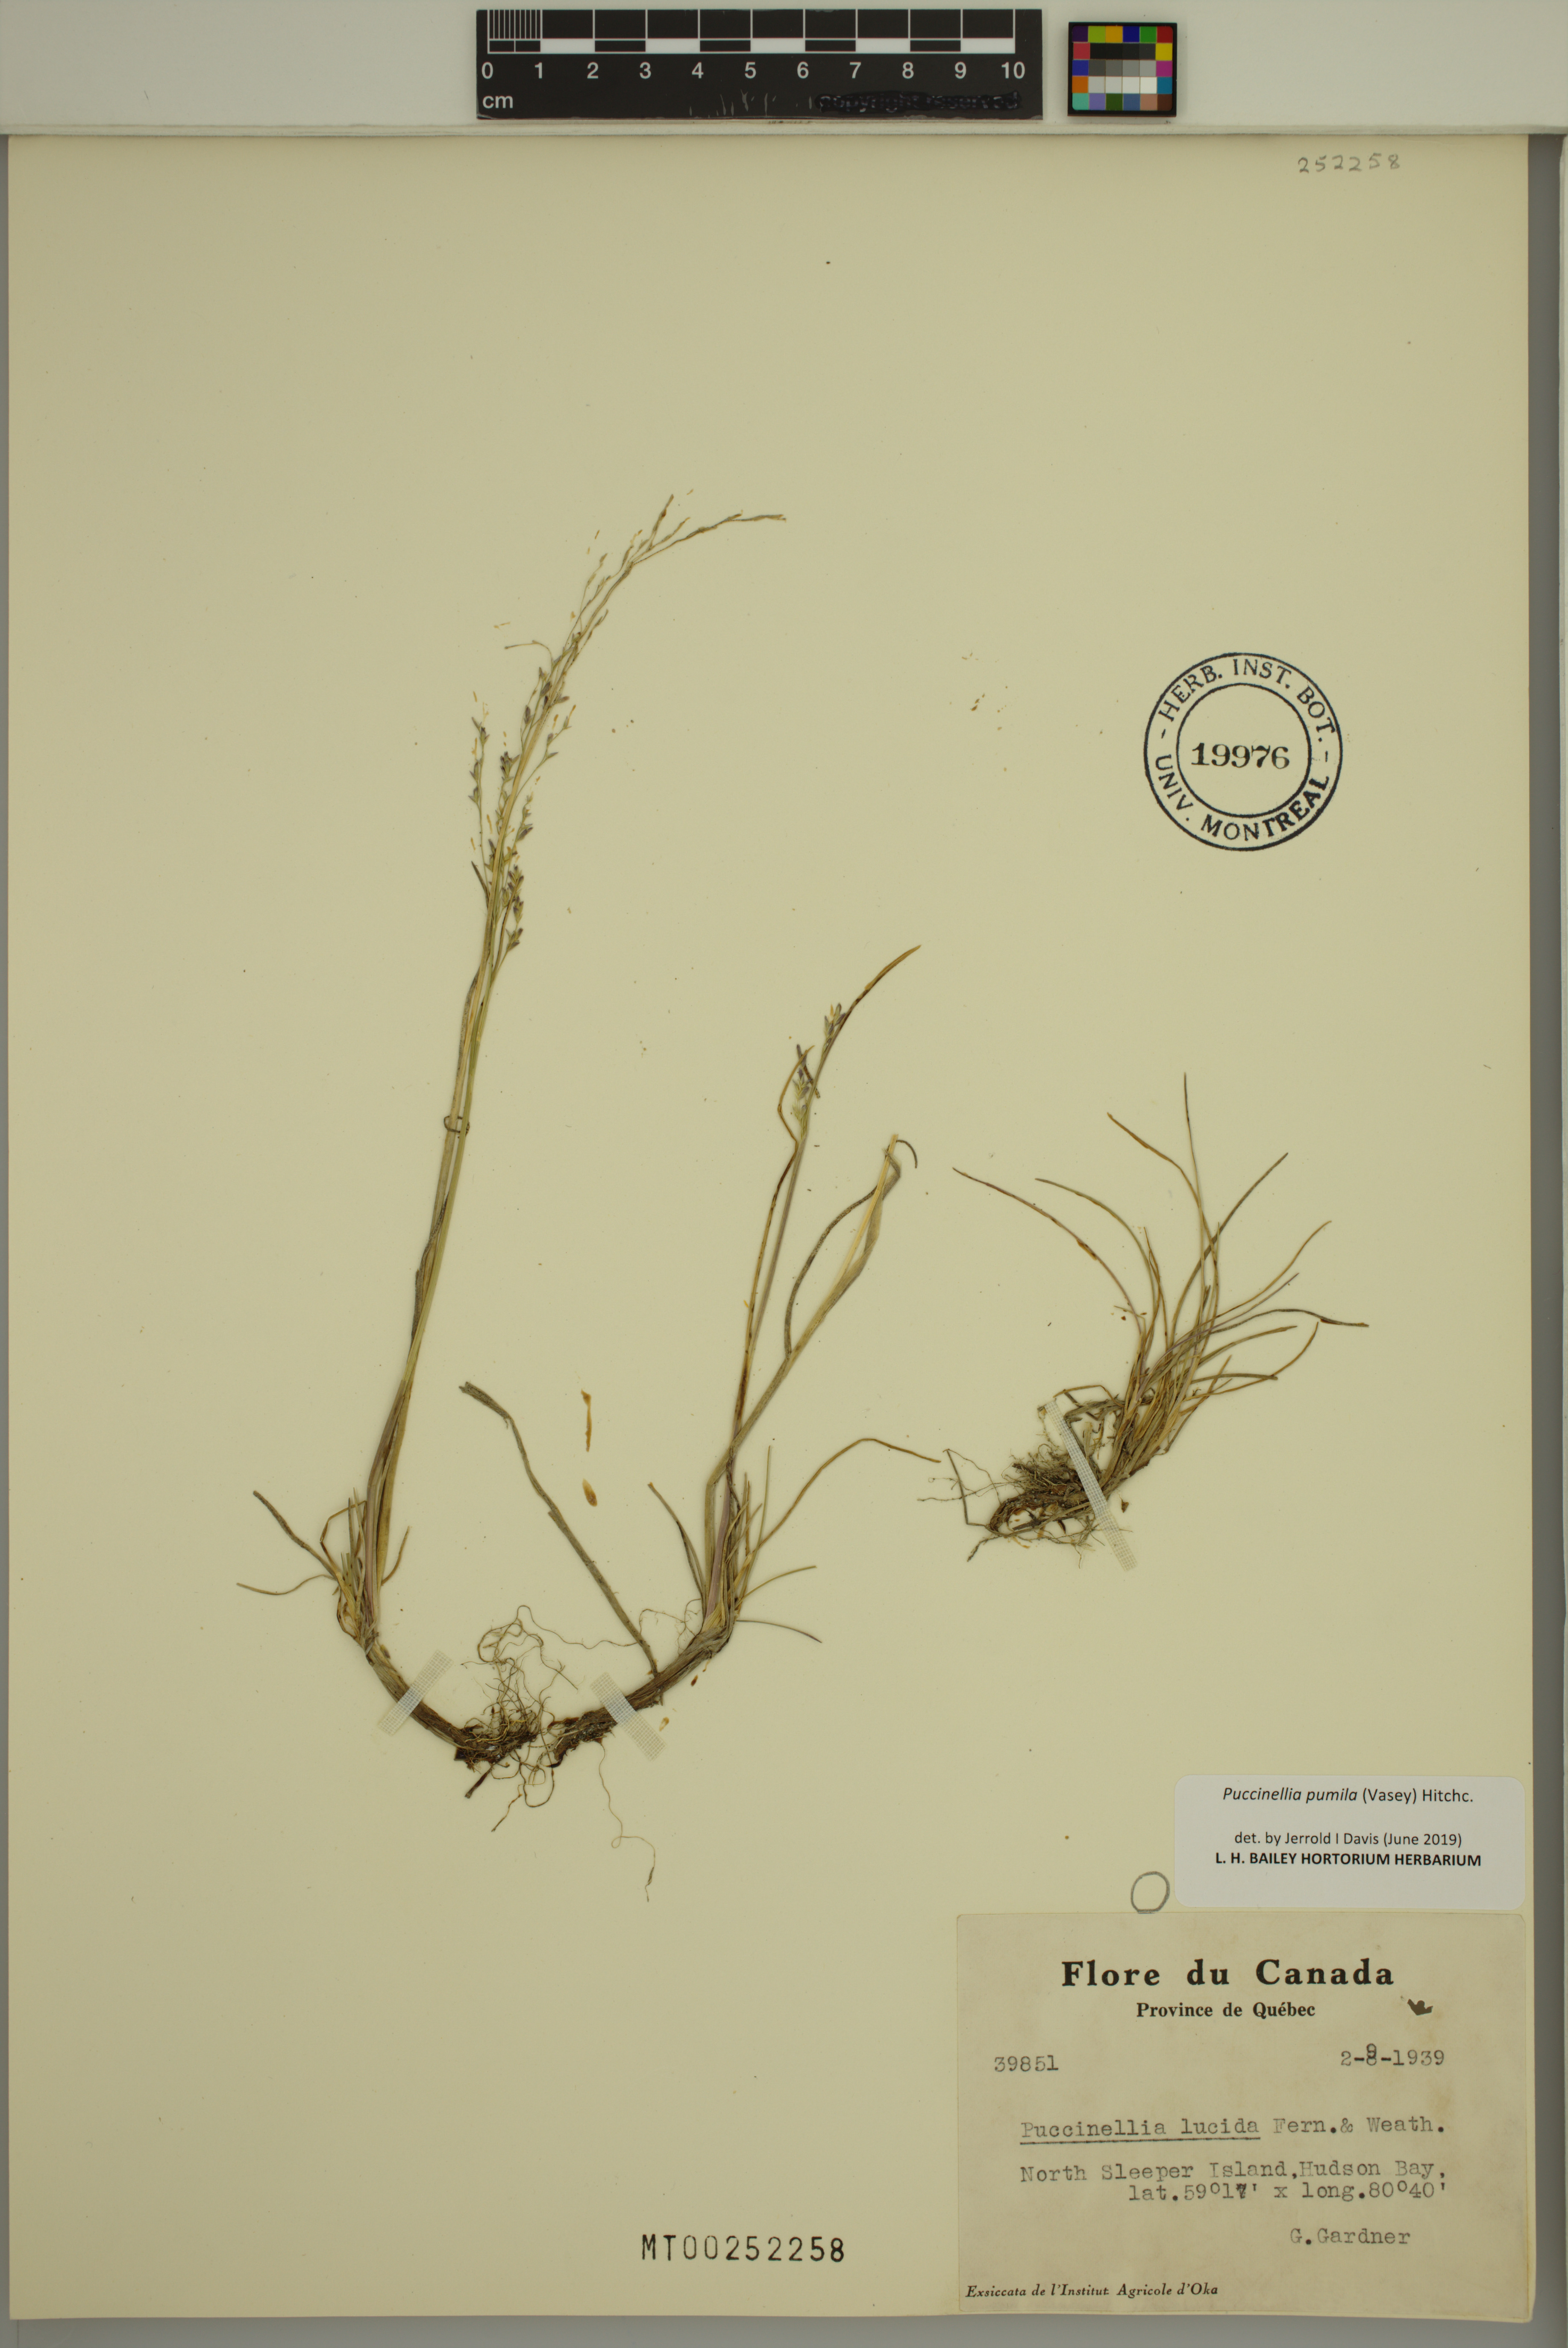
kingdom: Plantae
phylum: Tracheophyta
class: Liliopsida
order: Poales
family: Poaceae
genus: Puccinellia
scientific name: Puccinellia pumila
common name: Dwarf alkaligrass
